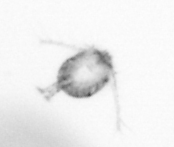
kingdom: Animalia
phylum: Arthropoda
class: Copepoda
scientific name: Copepoda
